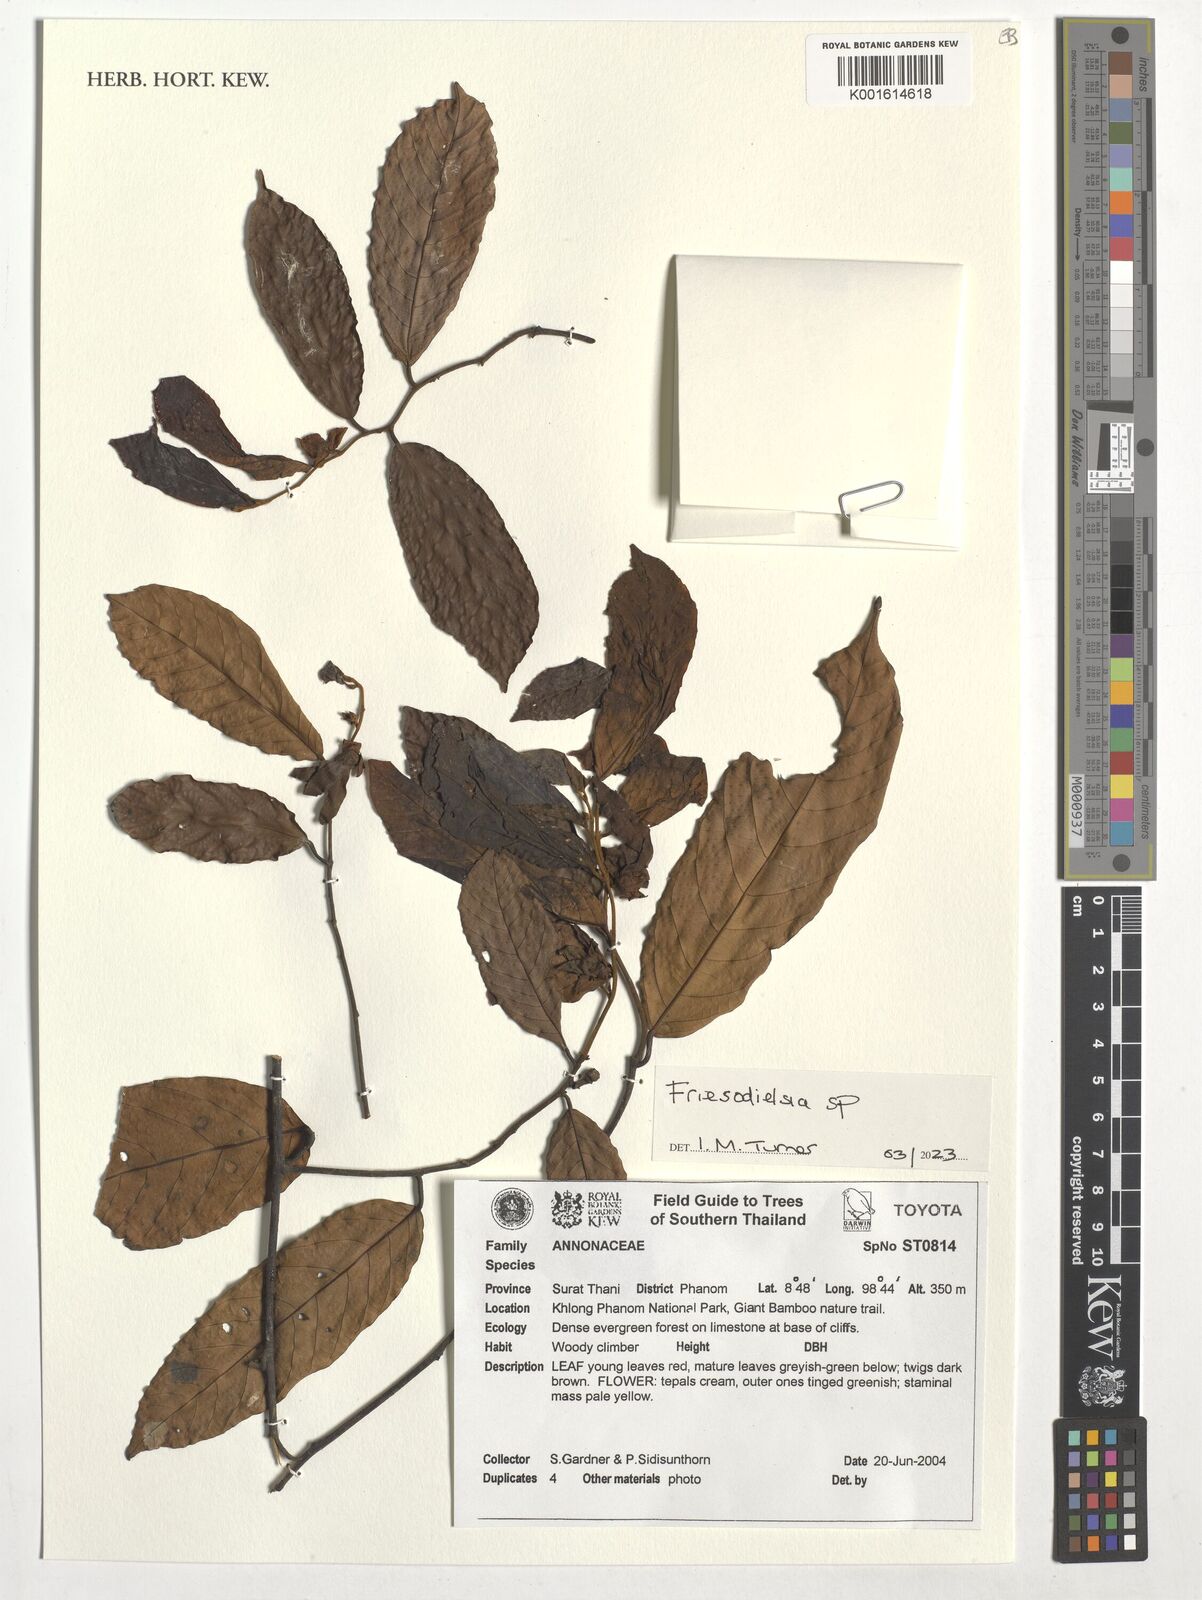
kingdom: Plantae
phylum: Tracheophyta
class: Magnoliopsida
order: Magnoliales
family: Annonaceae
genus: Friesodielsia
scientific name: Friesodielsia
